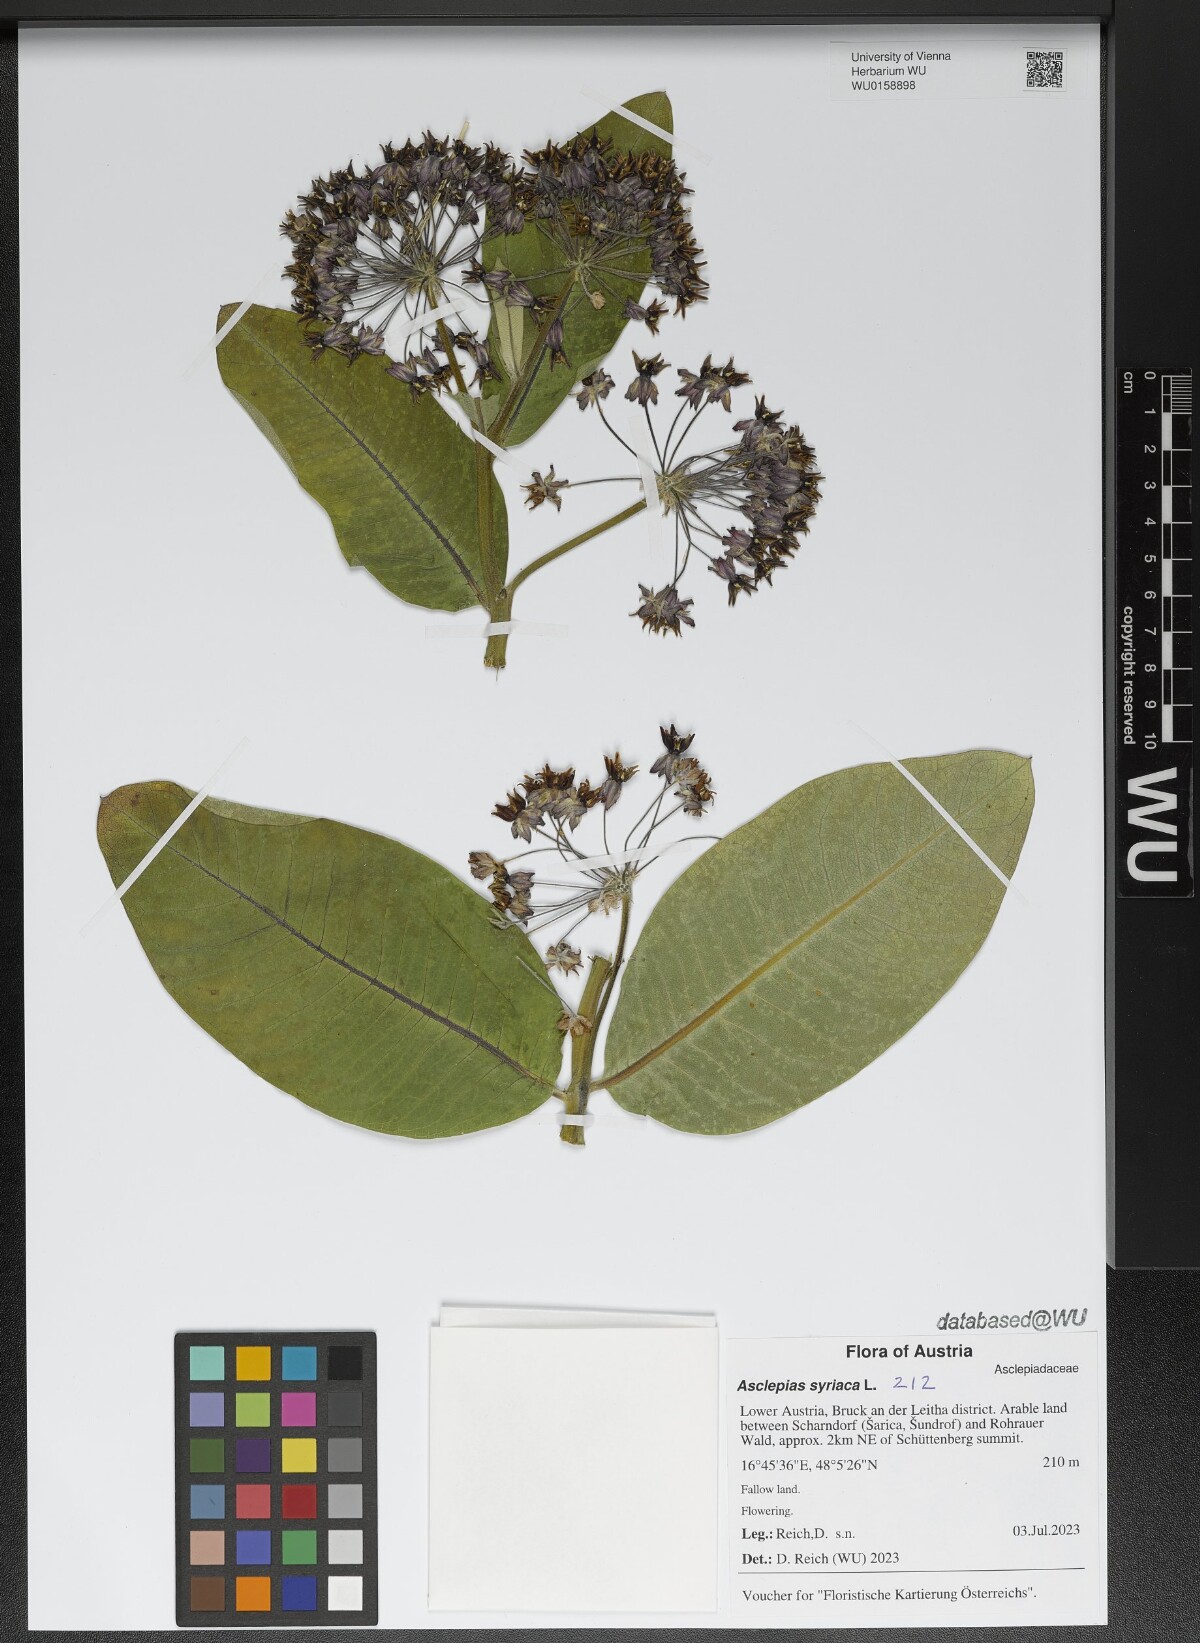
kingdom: Plantae
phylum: Tracheophyta
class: Magnoliopsida
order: Gentianales
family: Apocynaceae
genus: Asclepias
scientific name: Asclepias syriaca
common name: Common milkweed
